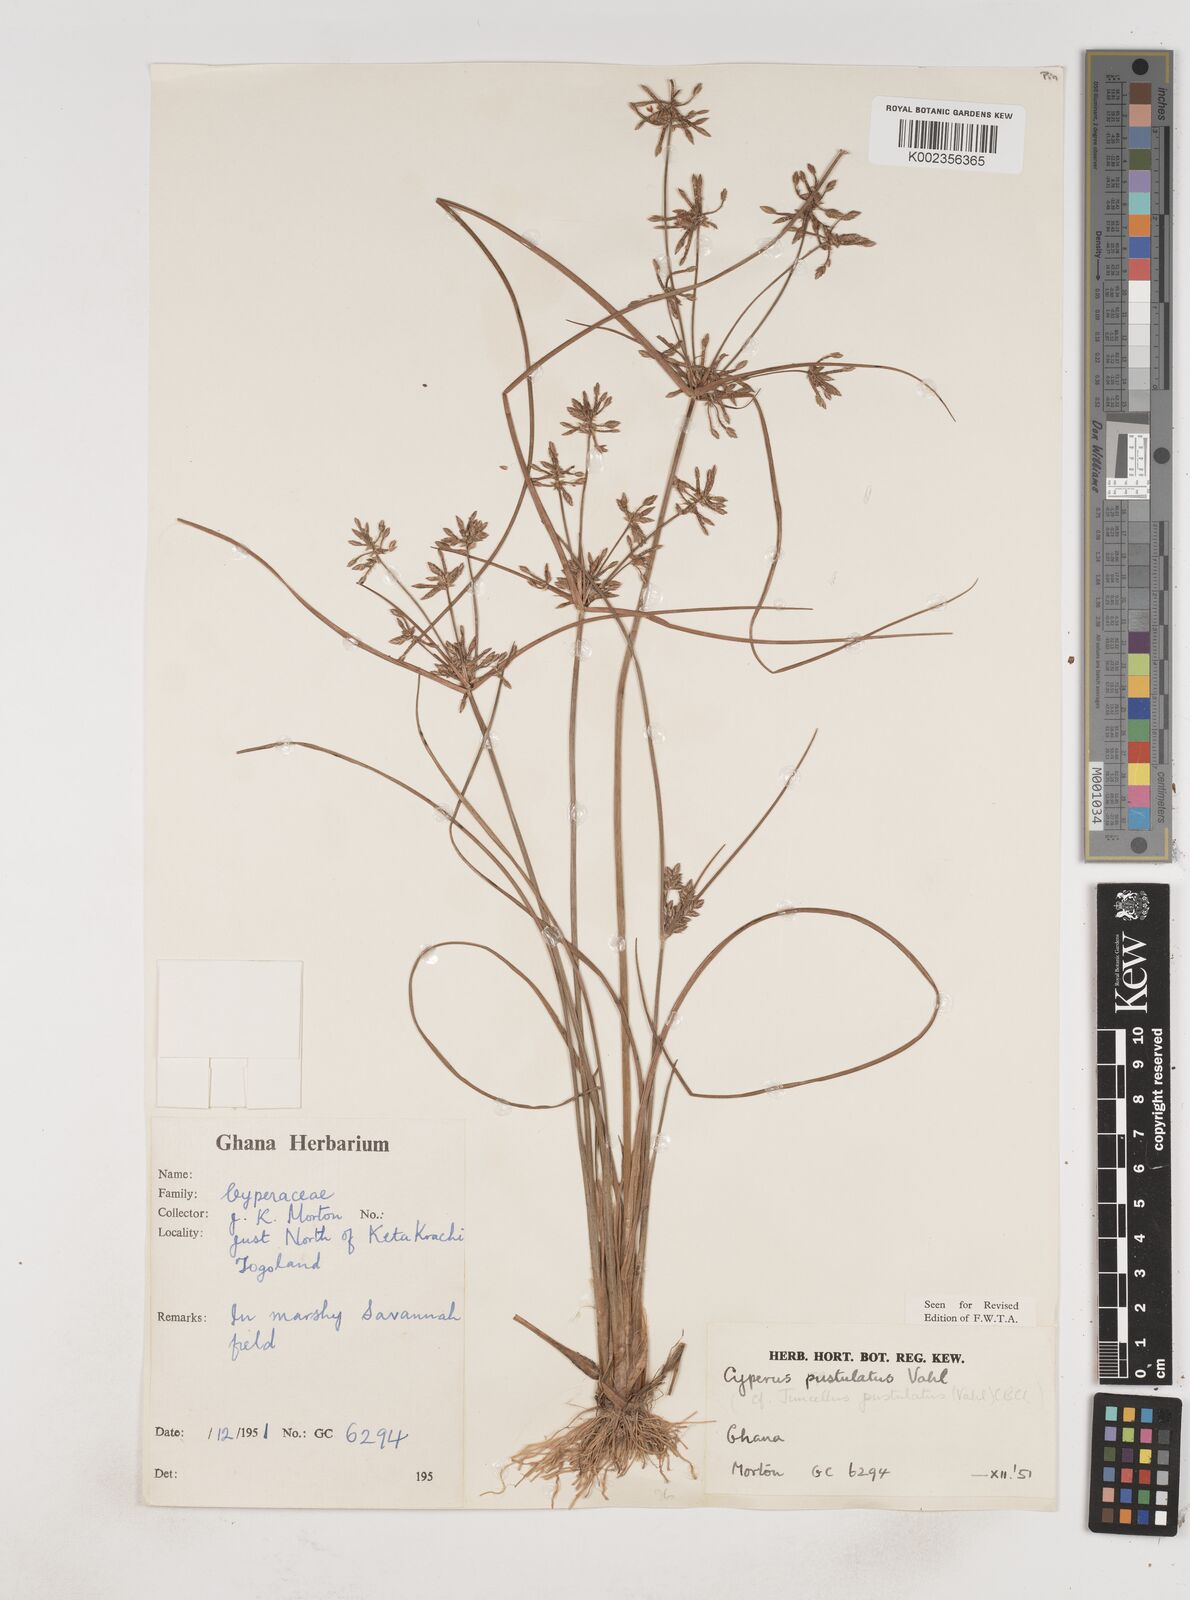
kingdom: Plantae
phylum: Tracheophyta
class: Liliopsida
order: Poales
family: Cyperaceae
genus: Cyperus
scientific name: Cyperus pustulatus
